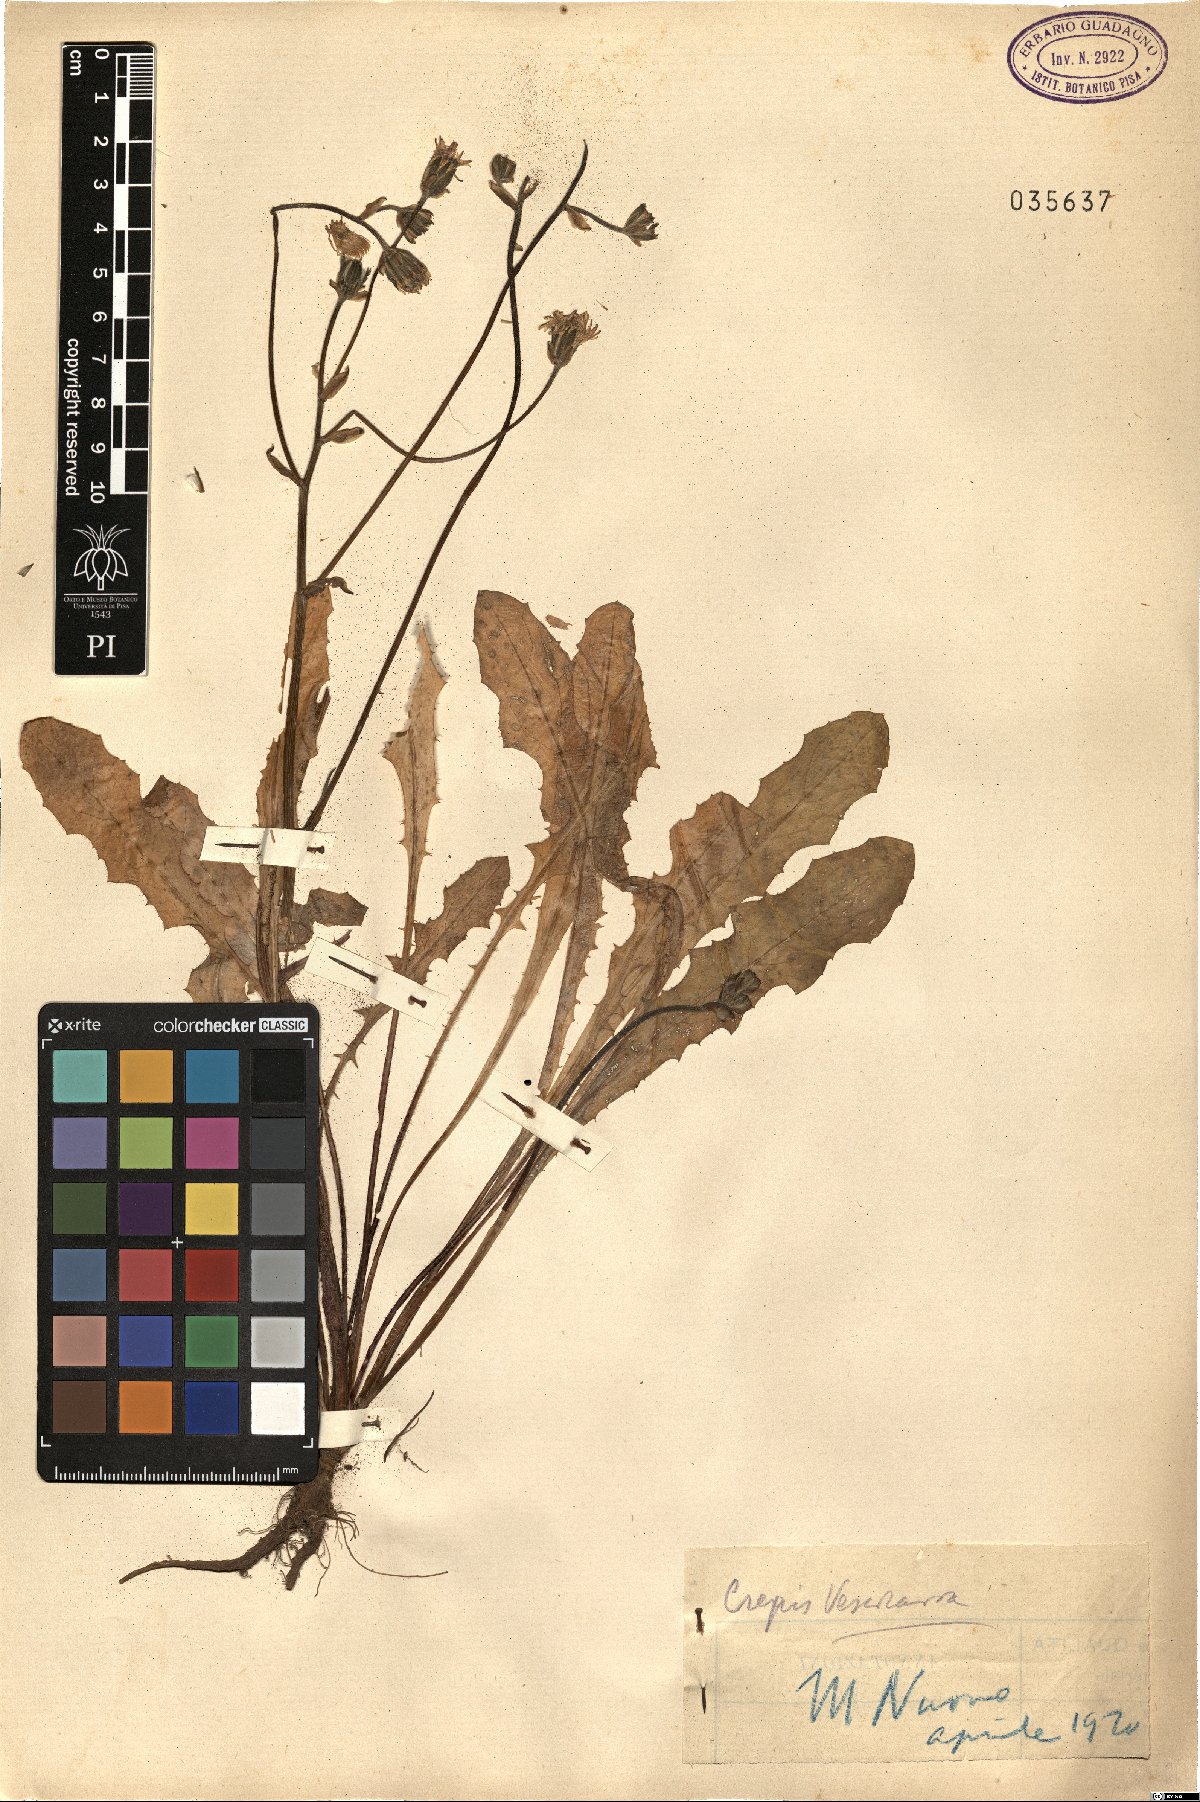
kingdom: Plantae
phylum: Tracheophyta
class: Magnoliopsida
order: Asterales
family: Asteraceae
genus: Crepis
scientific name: Crepis vesicaria
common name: Beaked hawksbeard
